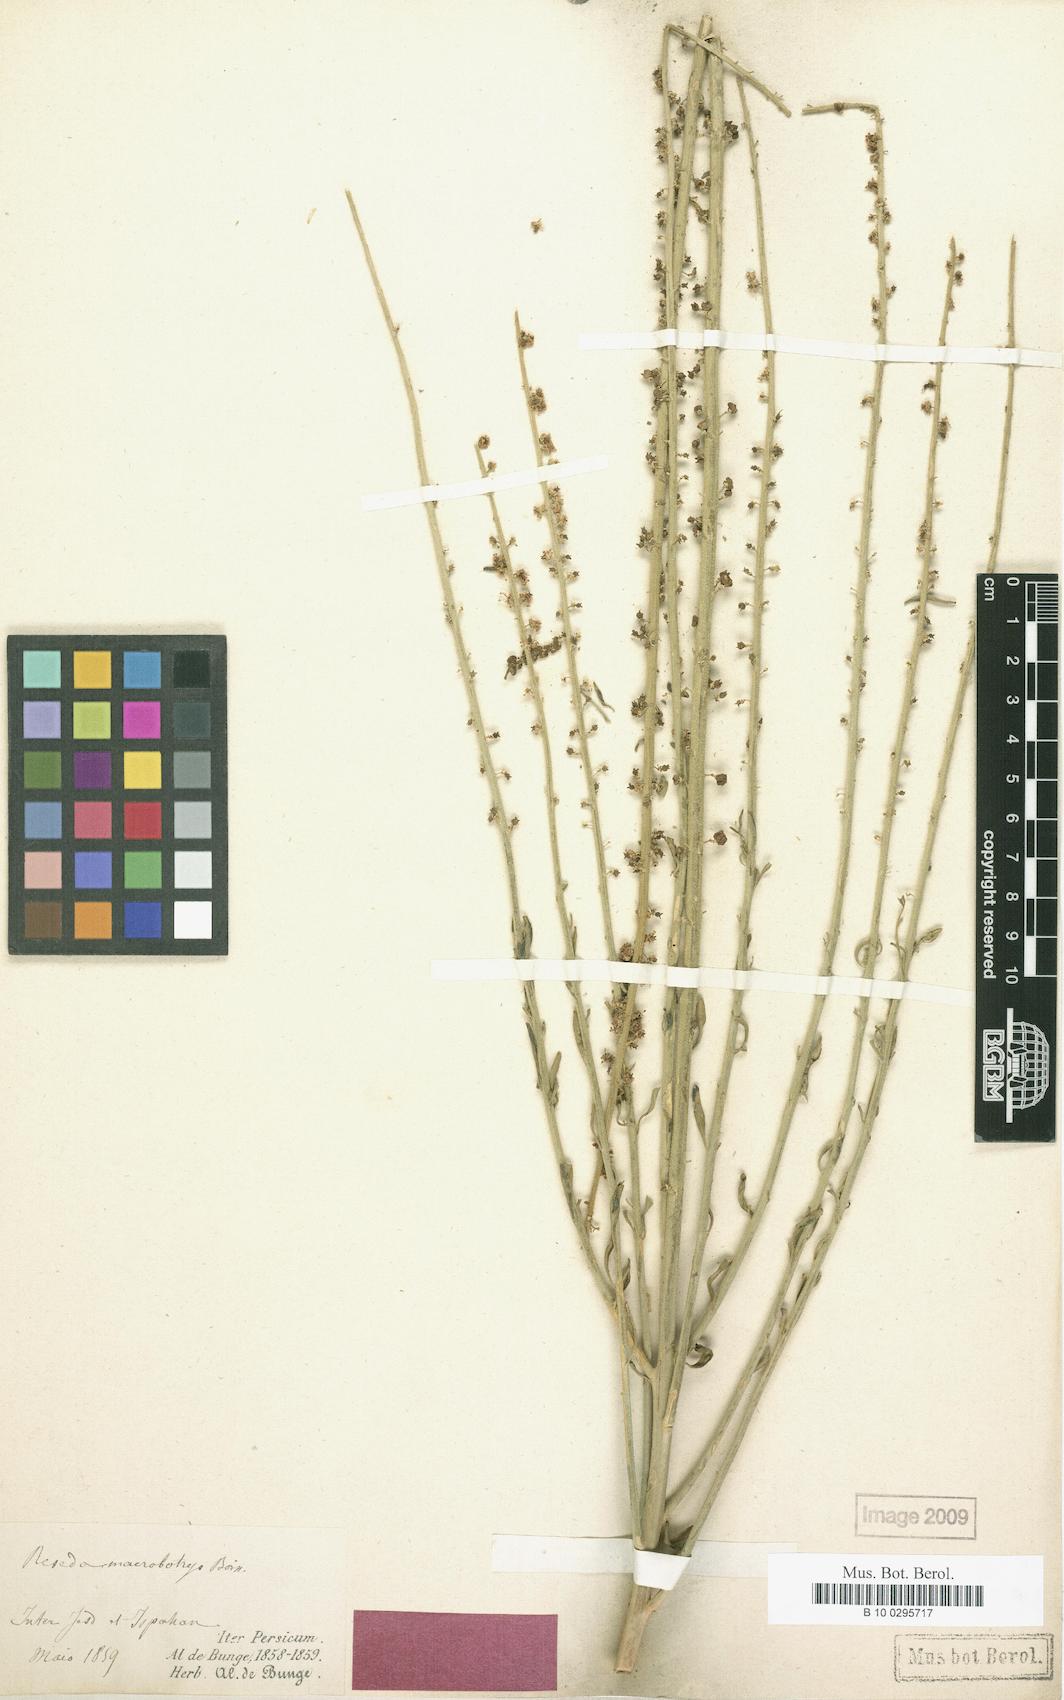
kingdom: Plantae
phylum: Tracheophyta
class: Magnoliopsida
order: Brassicales
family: Resedaceae
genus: Reseda
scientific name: Reseda macrobotrys
